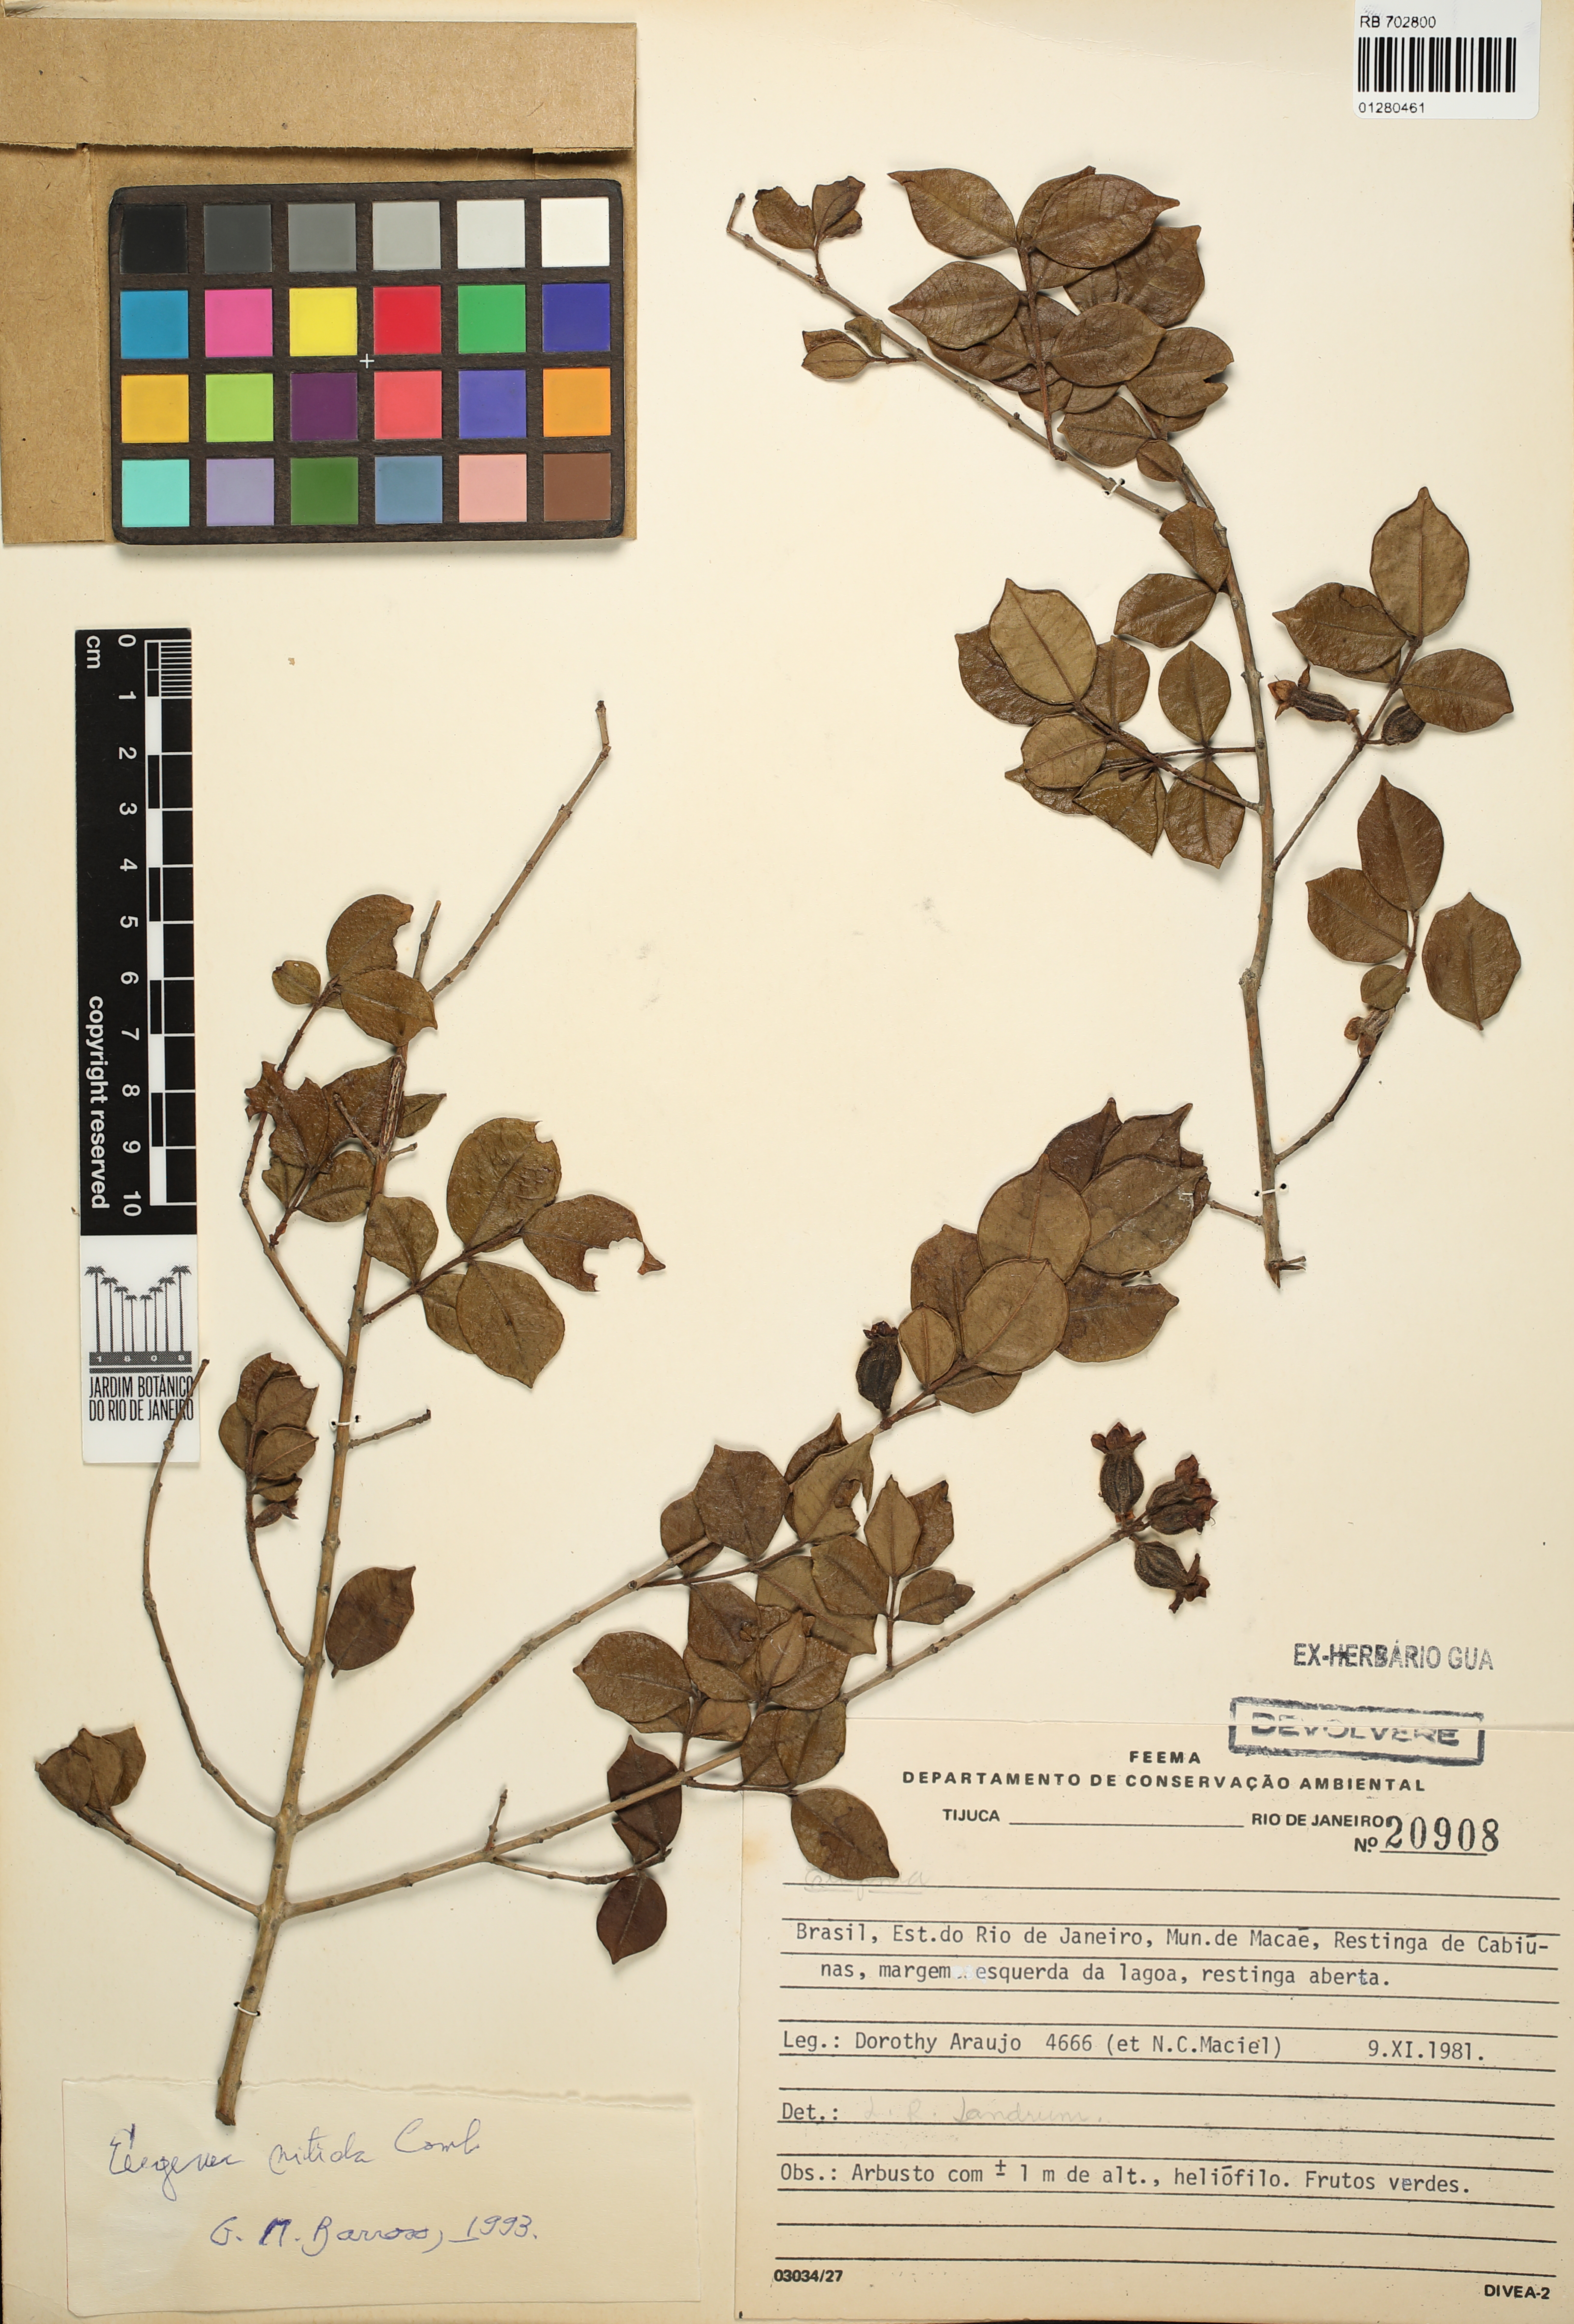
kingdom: Plantae
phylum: Tracheophyta
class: Magnoliopsida
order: Myrtales
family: Myrtaceae
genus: Eugenia
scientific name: Eugenia selloi
